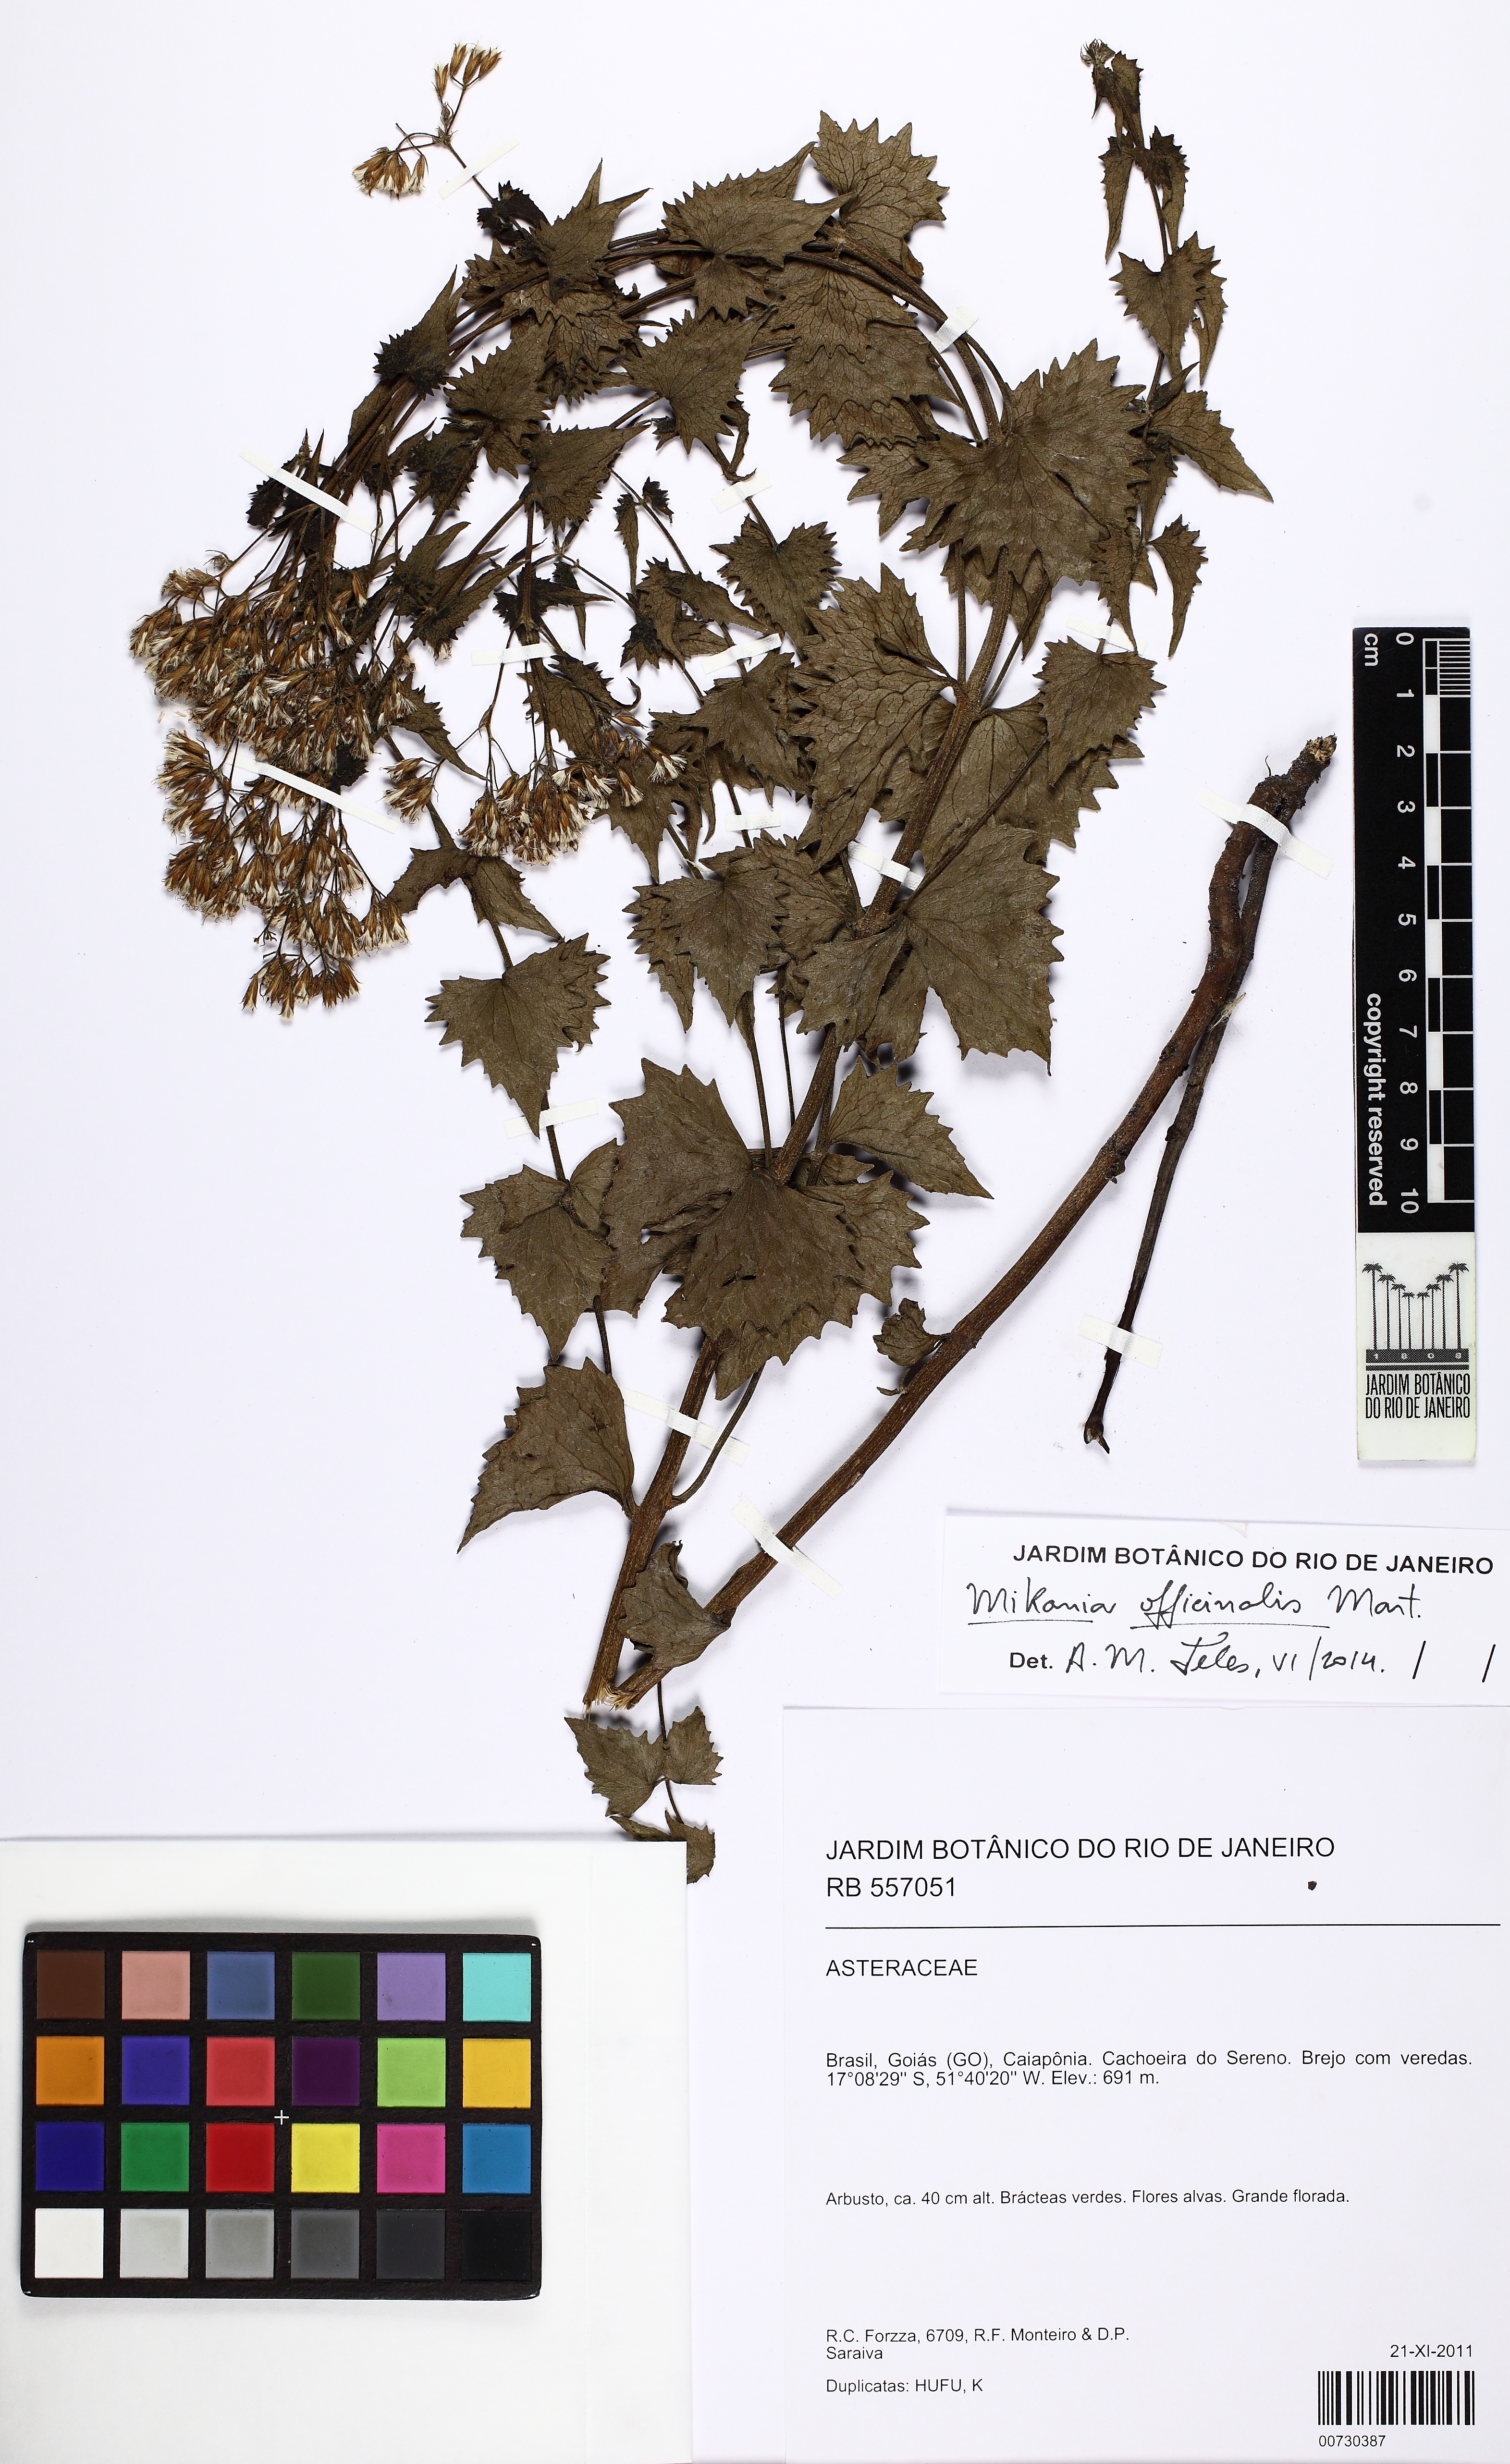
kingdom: Plantae
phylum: Tracheophyta
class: Magnoliopsida
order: Asterales
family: Asteraceae
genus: Mikania
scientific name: Mikania officinalis
